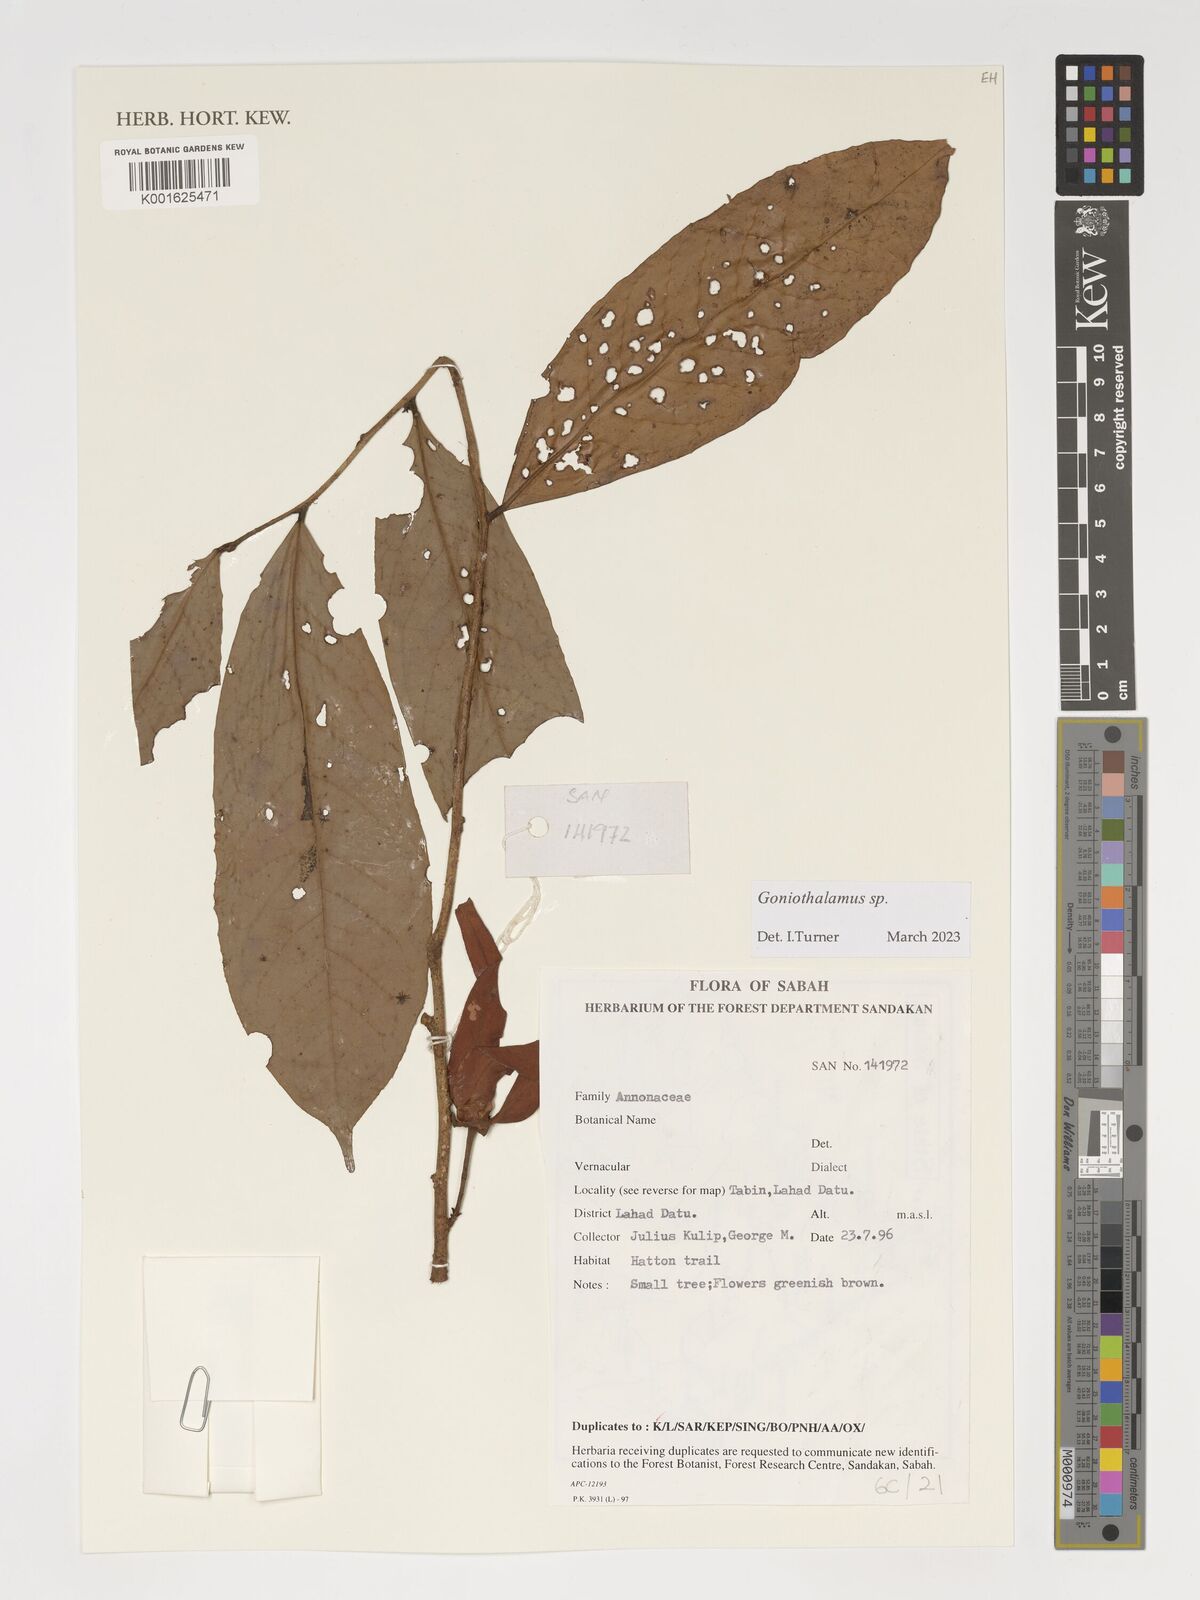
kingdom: Plantae
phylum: Tracheophyta
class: Magnoliopsida
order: Magnoliales
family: Annonaceae
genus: Goniothalamus
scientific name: Goniothalamus
